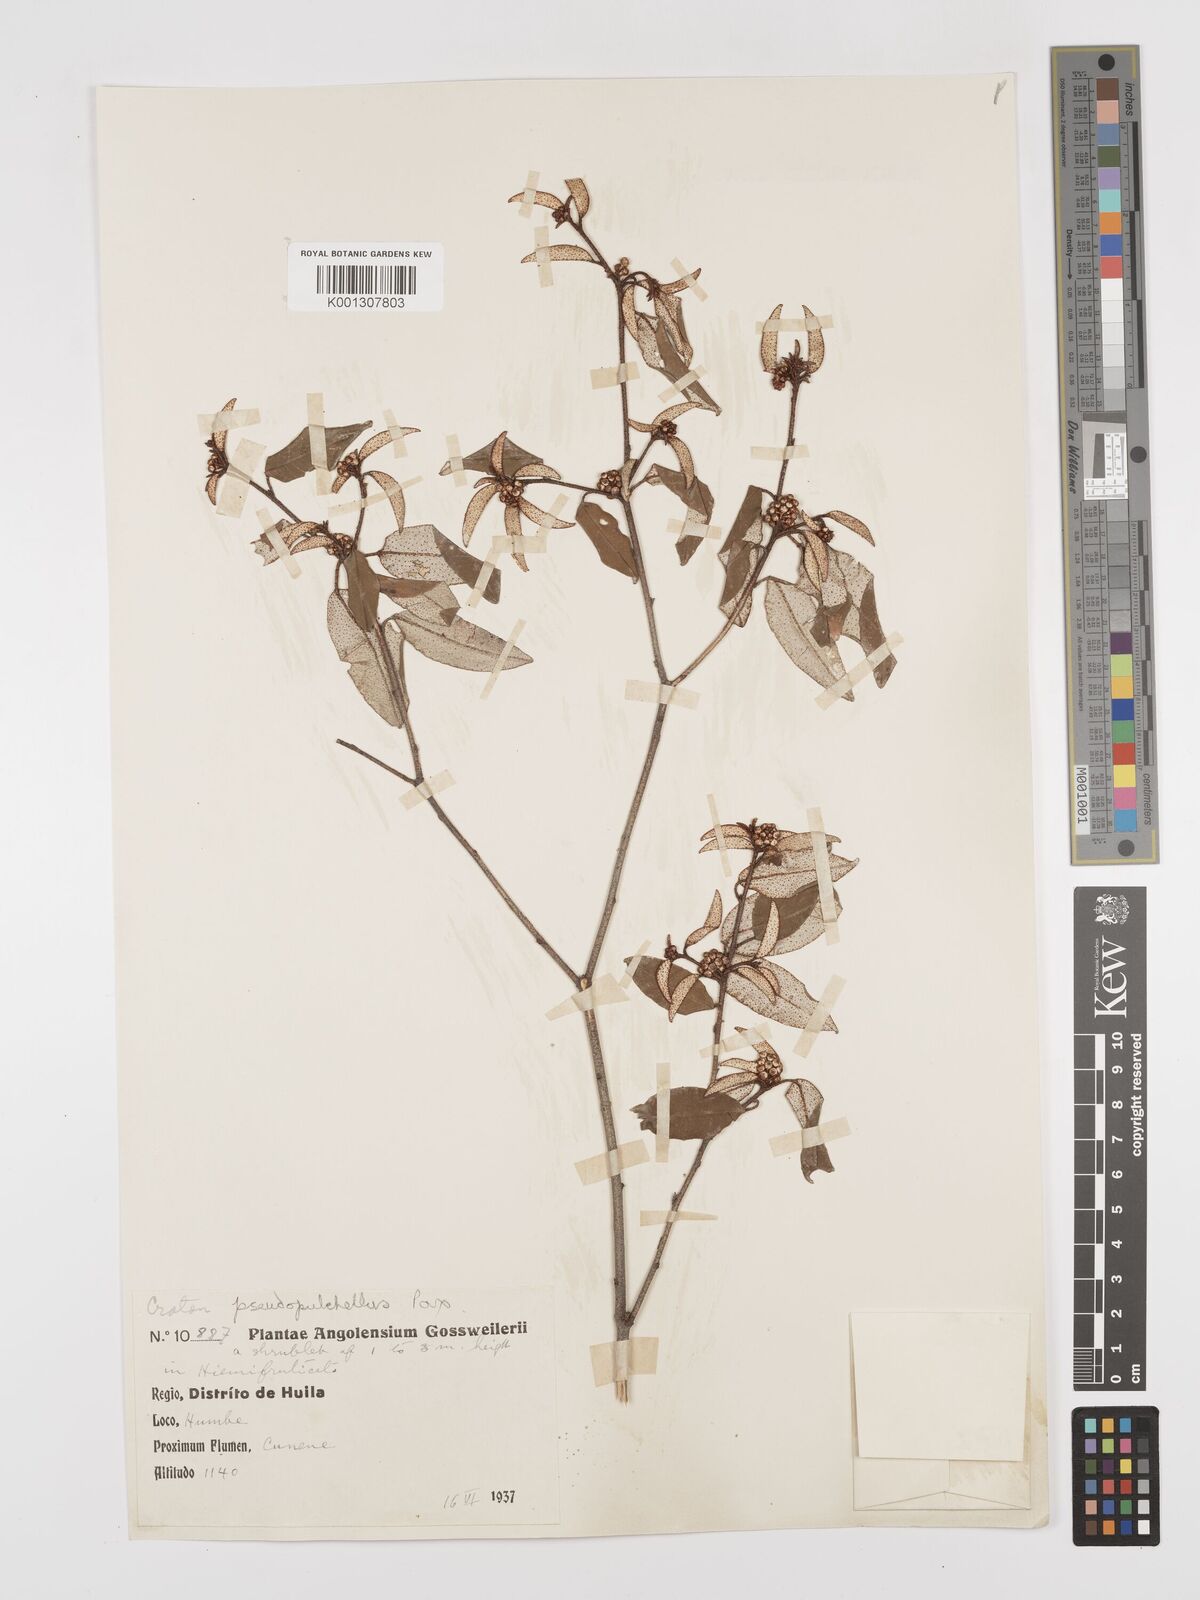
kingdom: Plantae
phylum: Tracheophyta
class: Magnoliopsida
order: Malpighiales
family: Euphorbiaceae
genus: Croton
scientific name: Croton pseudopulchellus
